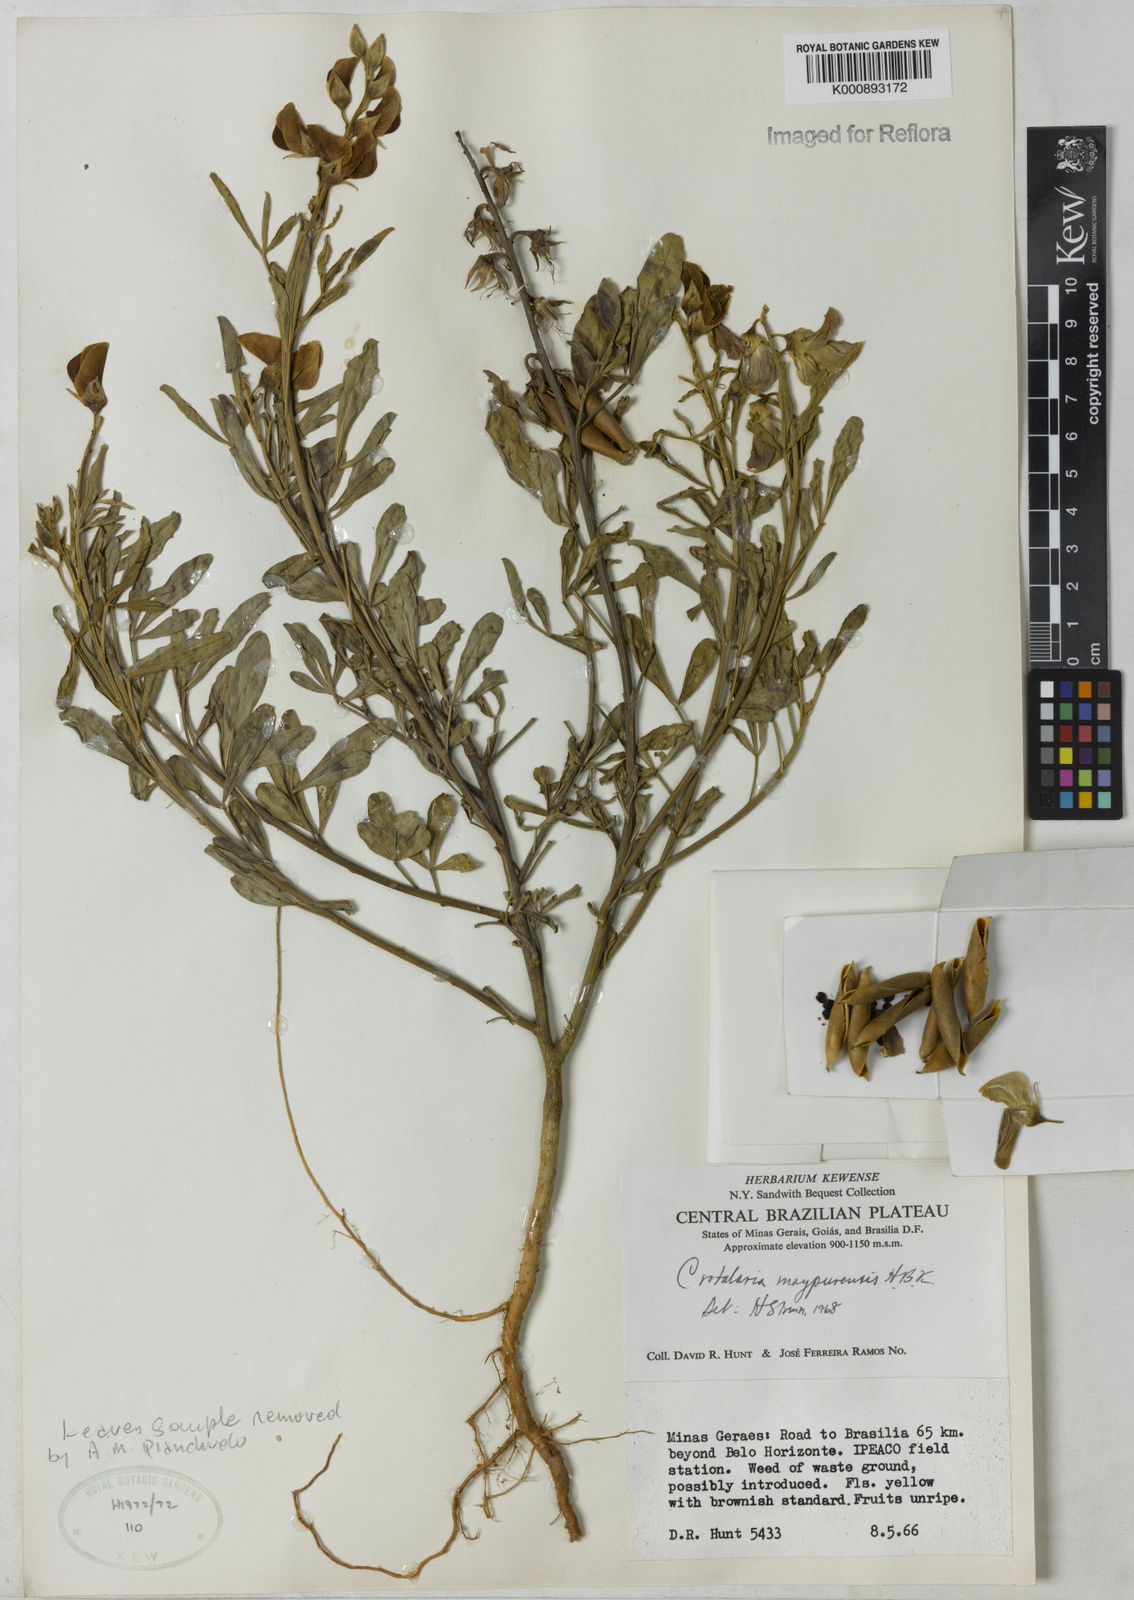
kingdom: Plantae
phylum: Tracheophyta
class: Magnoliopsida
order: Fabales
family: Fabaceae
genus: Crotalaria
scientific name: Crotalaria maypurensis
